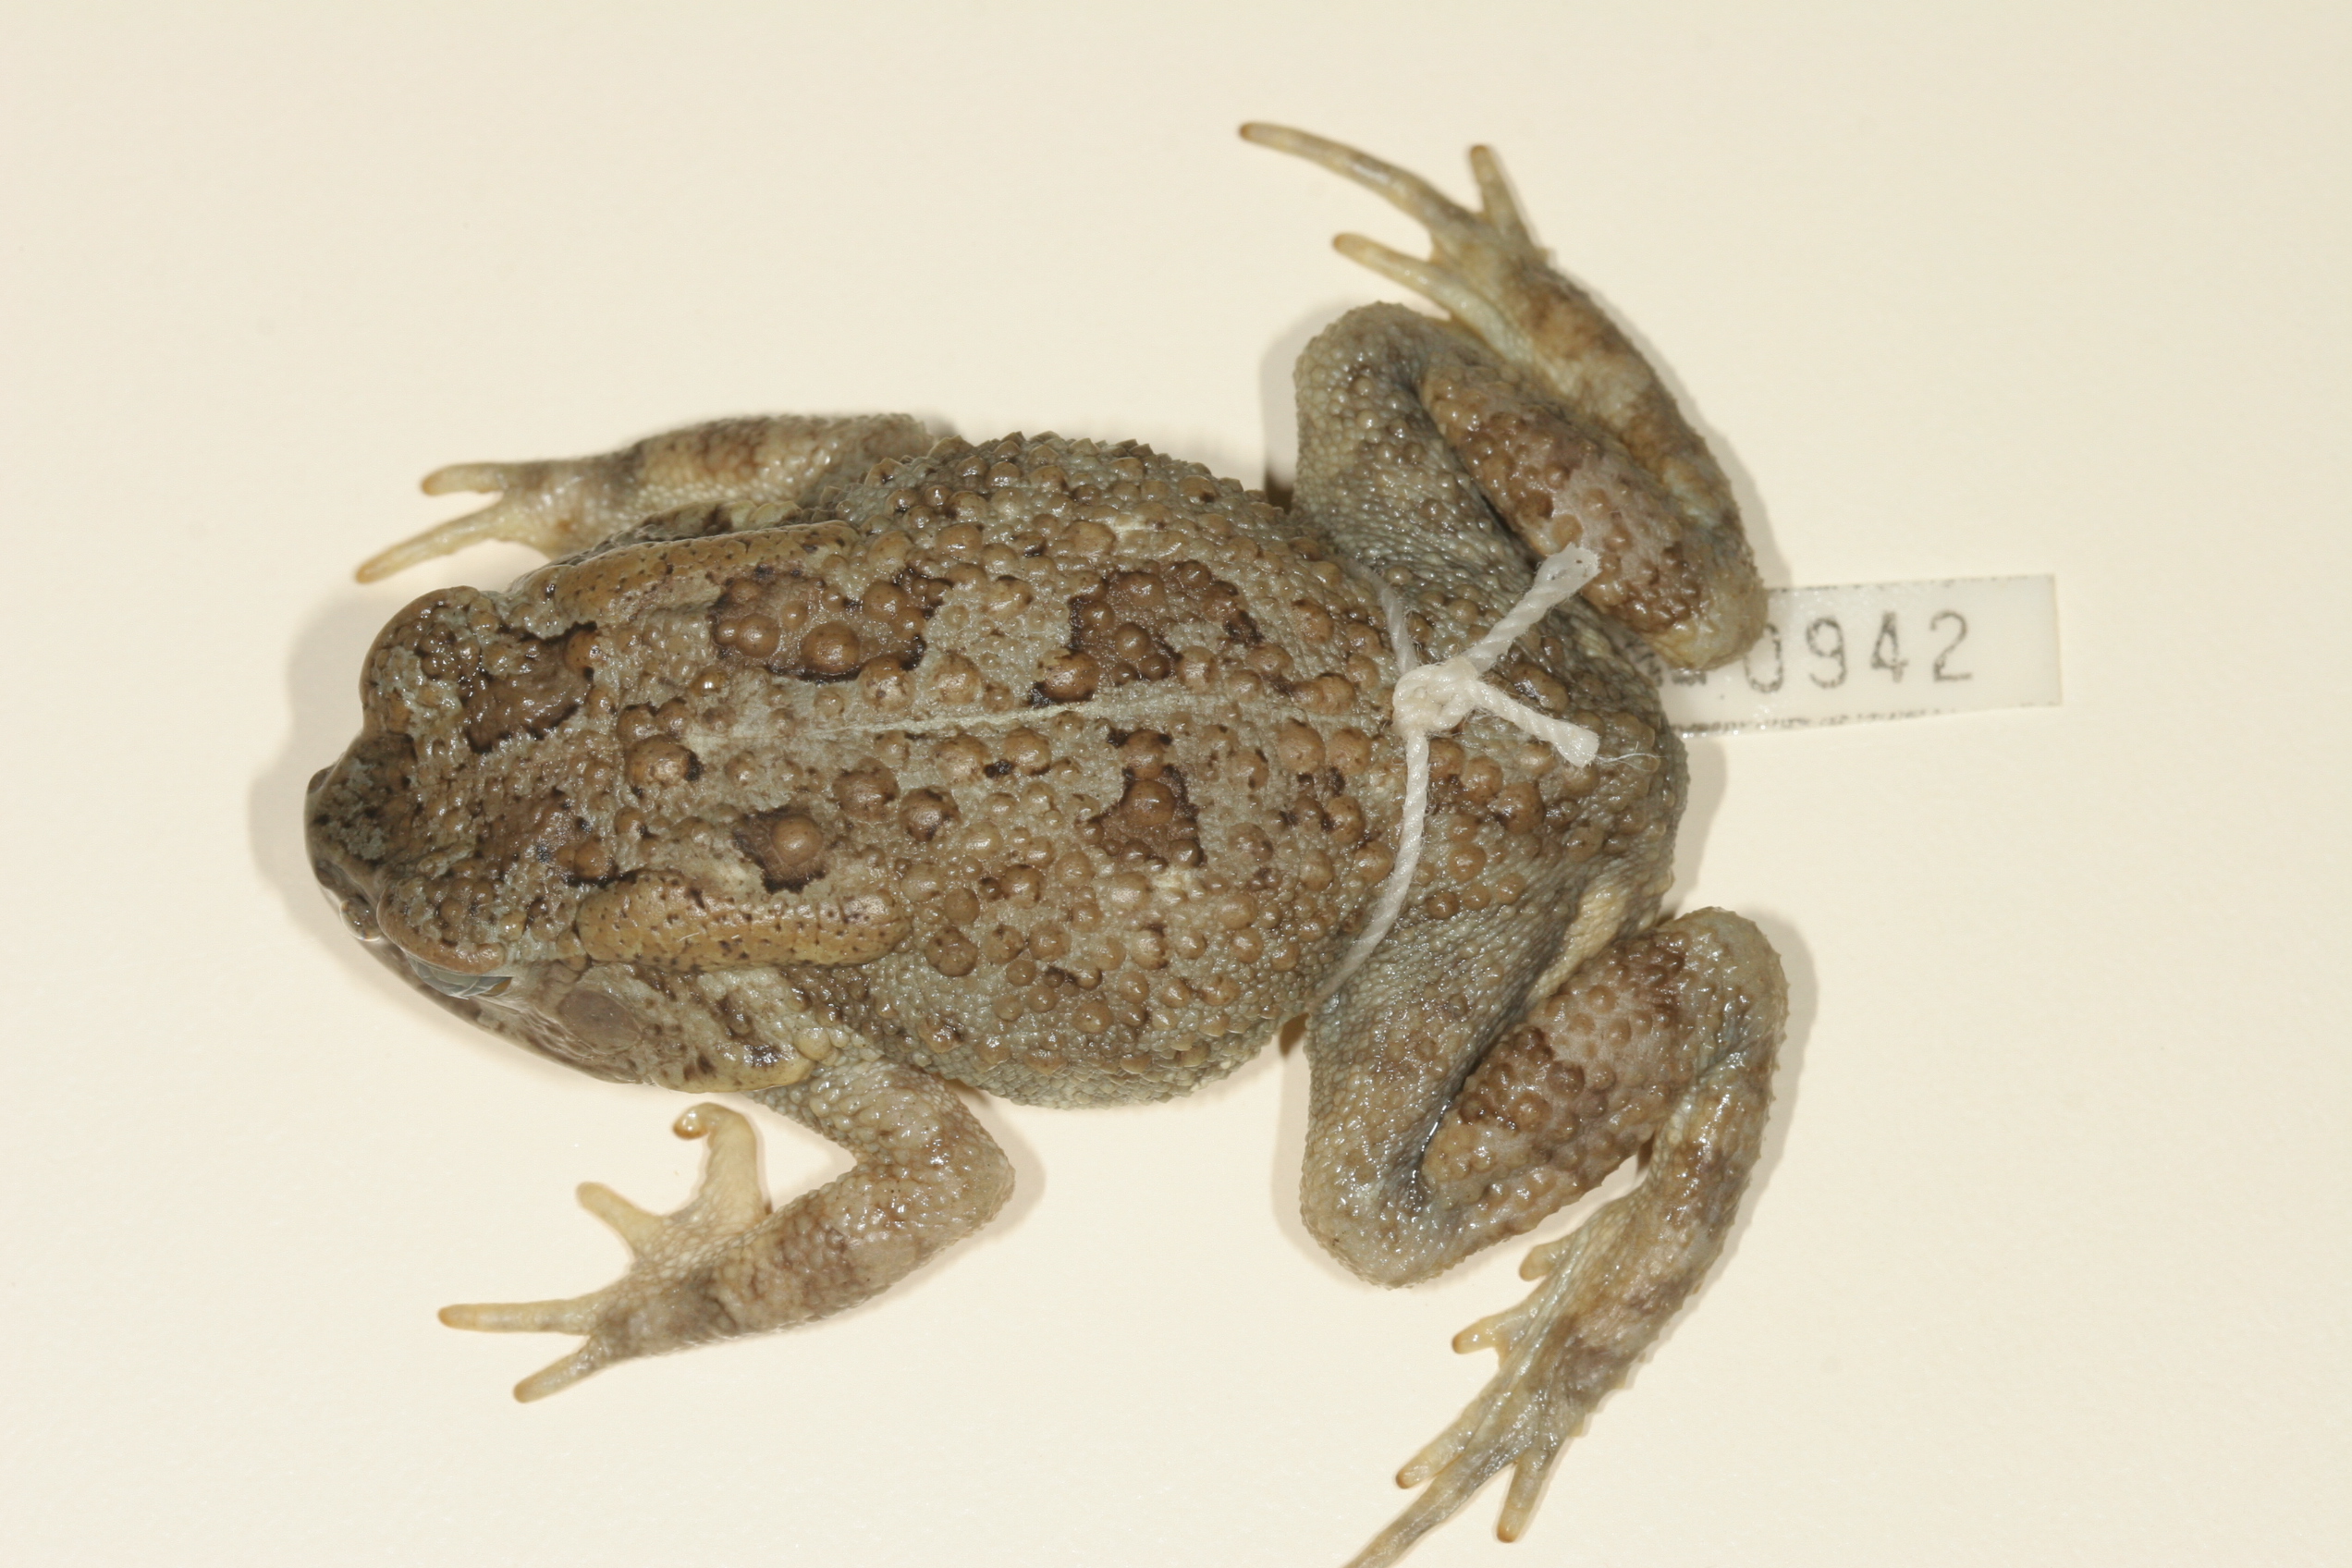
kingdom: Animalia
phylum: Chordata
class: Amphibia
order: Anura
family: Bufonidae
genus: Sclerophrys
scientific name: Sclerophrys poweri
